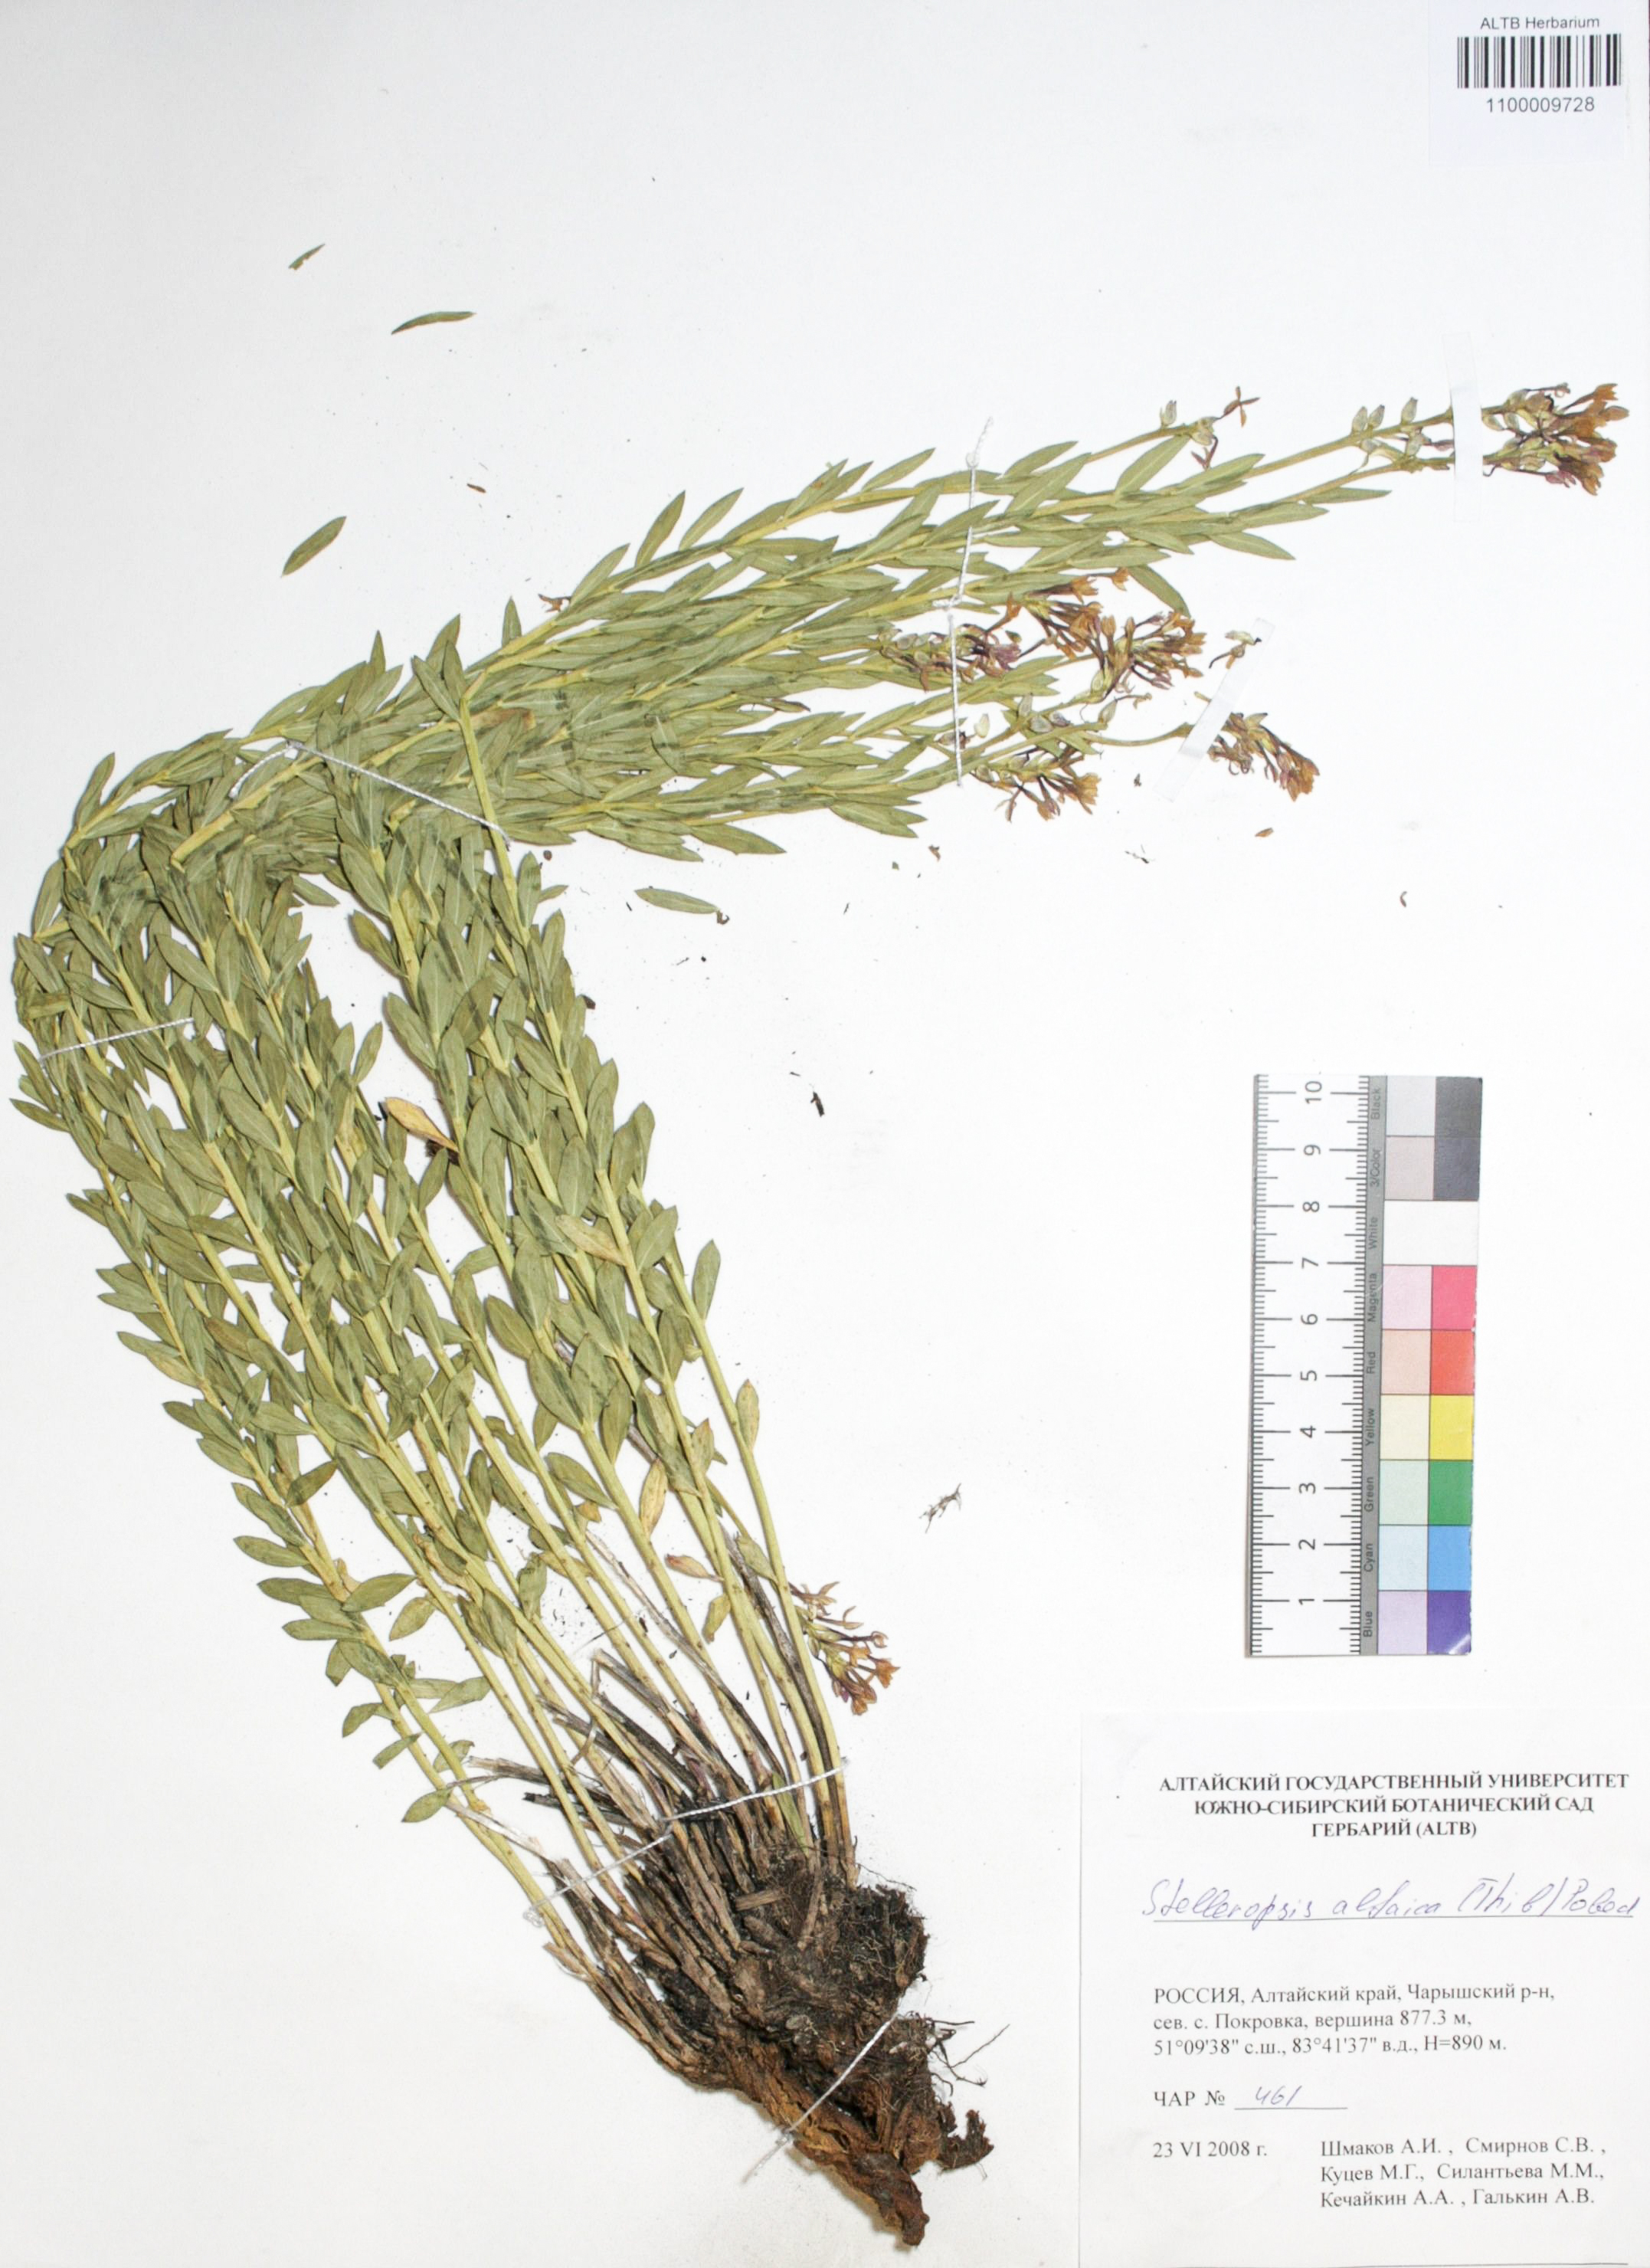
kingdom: Plantae
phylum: Tracheophyta
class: Magnoliopsida
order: Malvales
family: Thymelaeaceae
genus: Diarthron
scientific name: Diarthron altaicum
